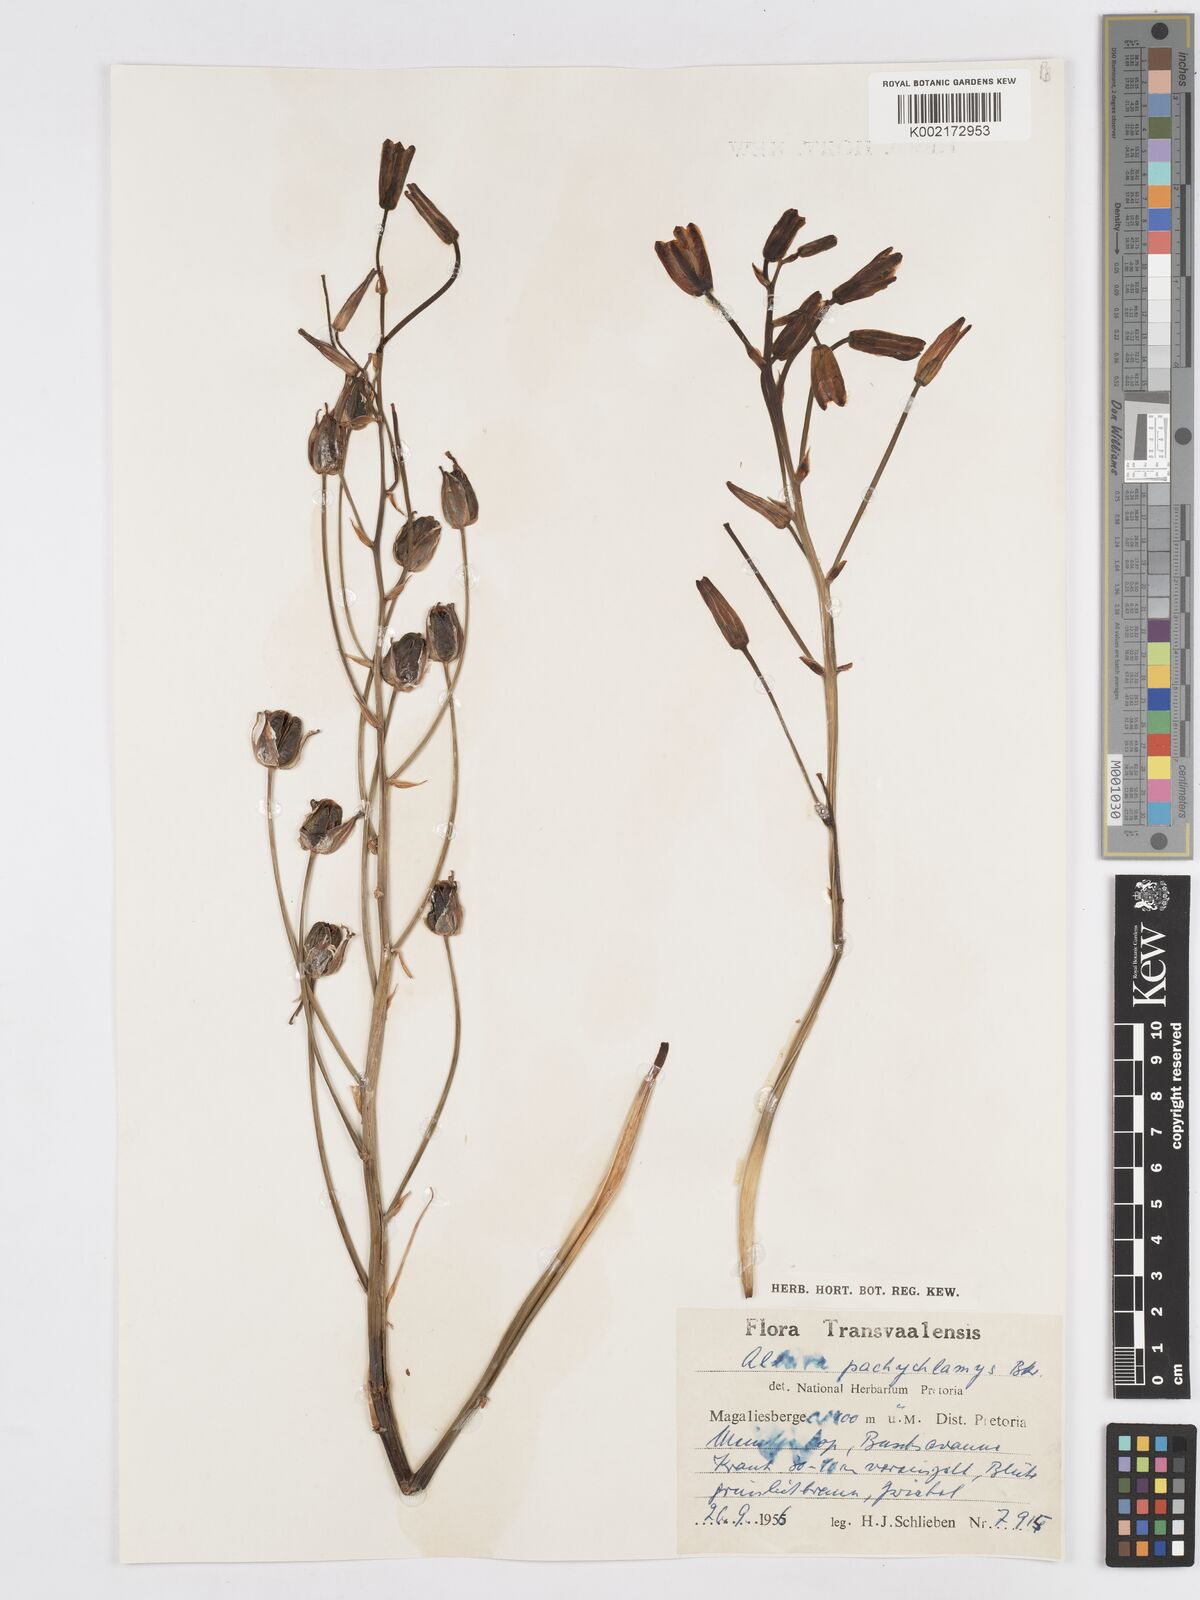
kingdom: Plantae
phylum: Tracheophyta
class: Liliopsida
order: Asparagales
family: Asparagaceae
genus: Albuca
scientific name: Albuca setosa
